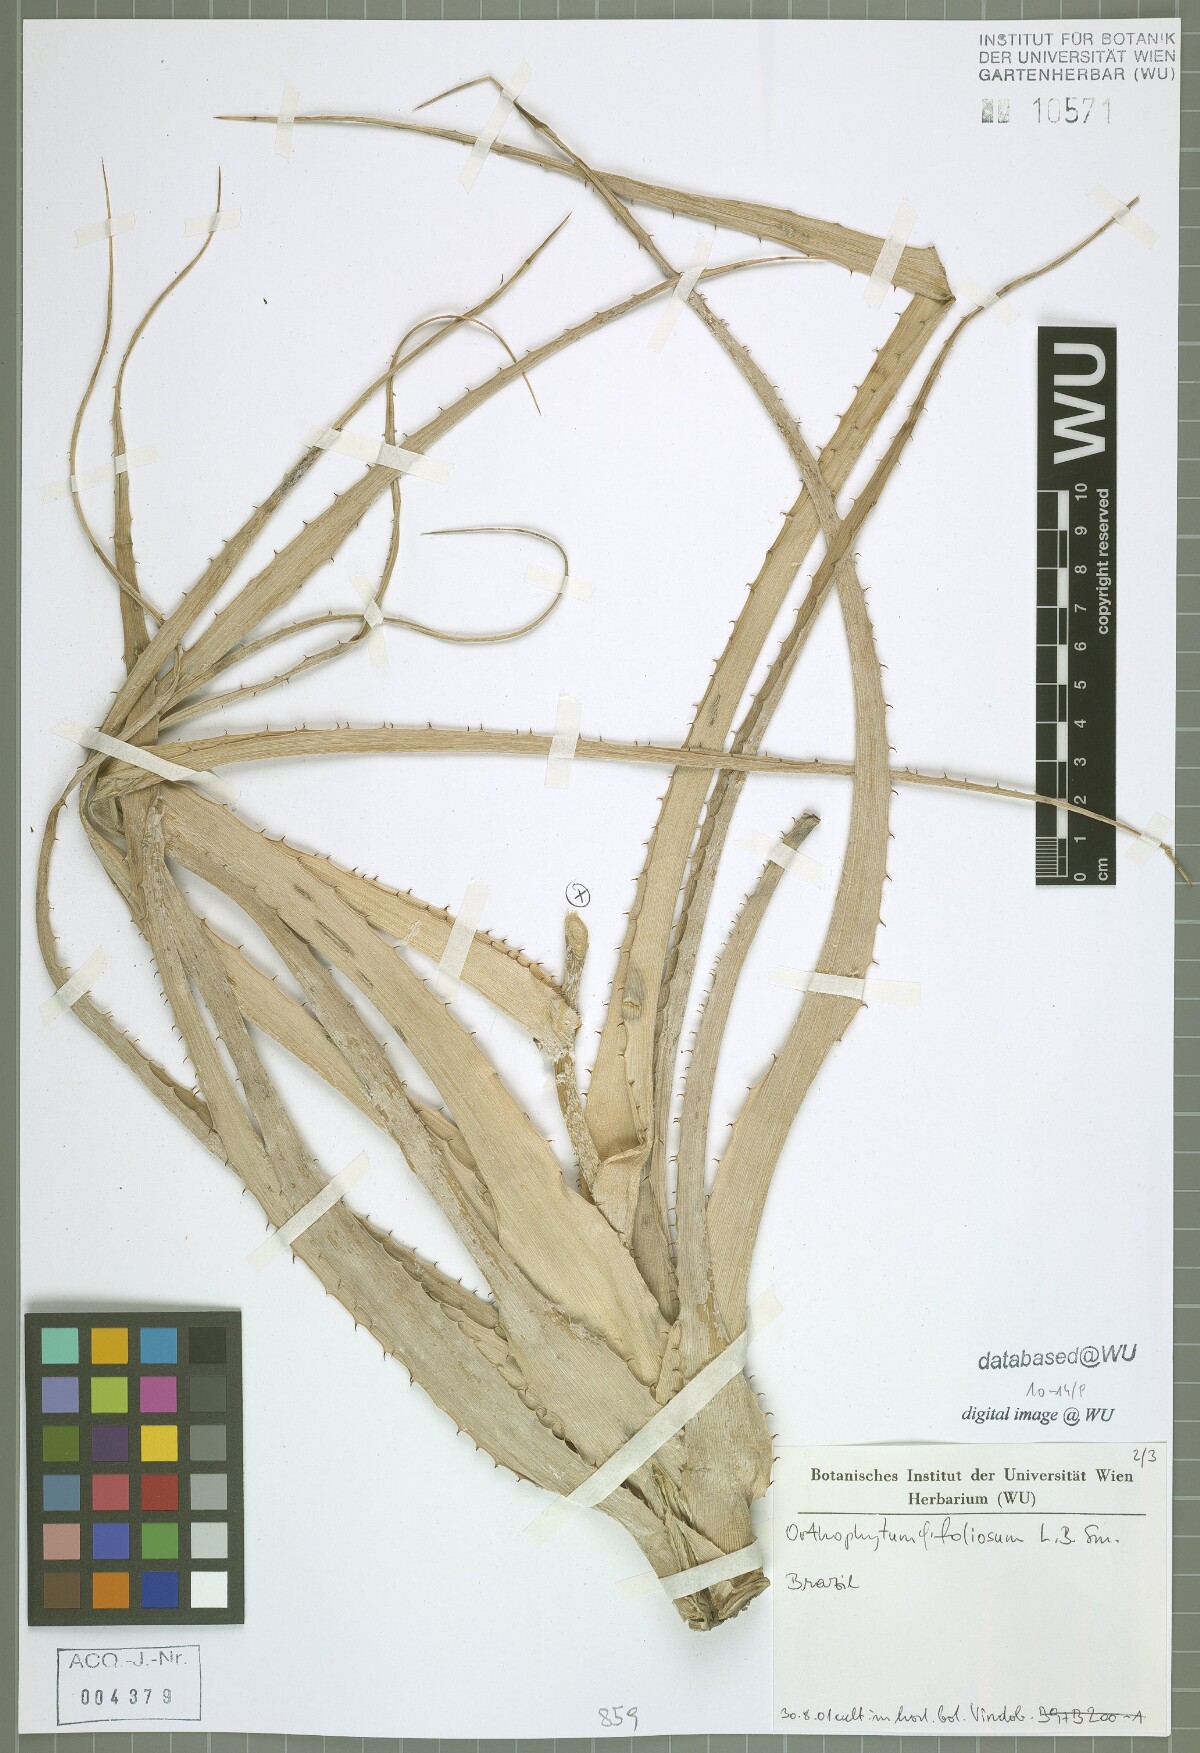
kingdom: Plantae
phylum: Tracheophyta
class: Liliopsida
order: Poales
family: Bromeliaceae
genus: Orthophytum
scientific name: Orthophytum foliosum
